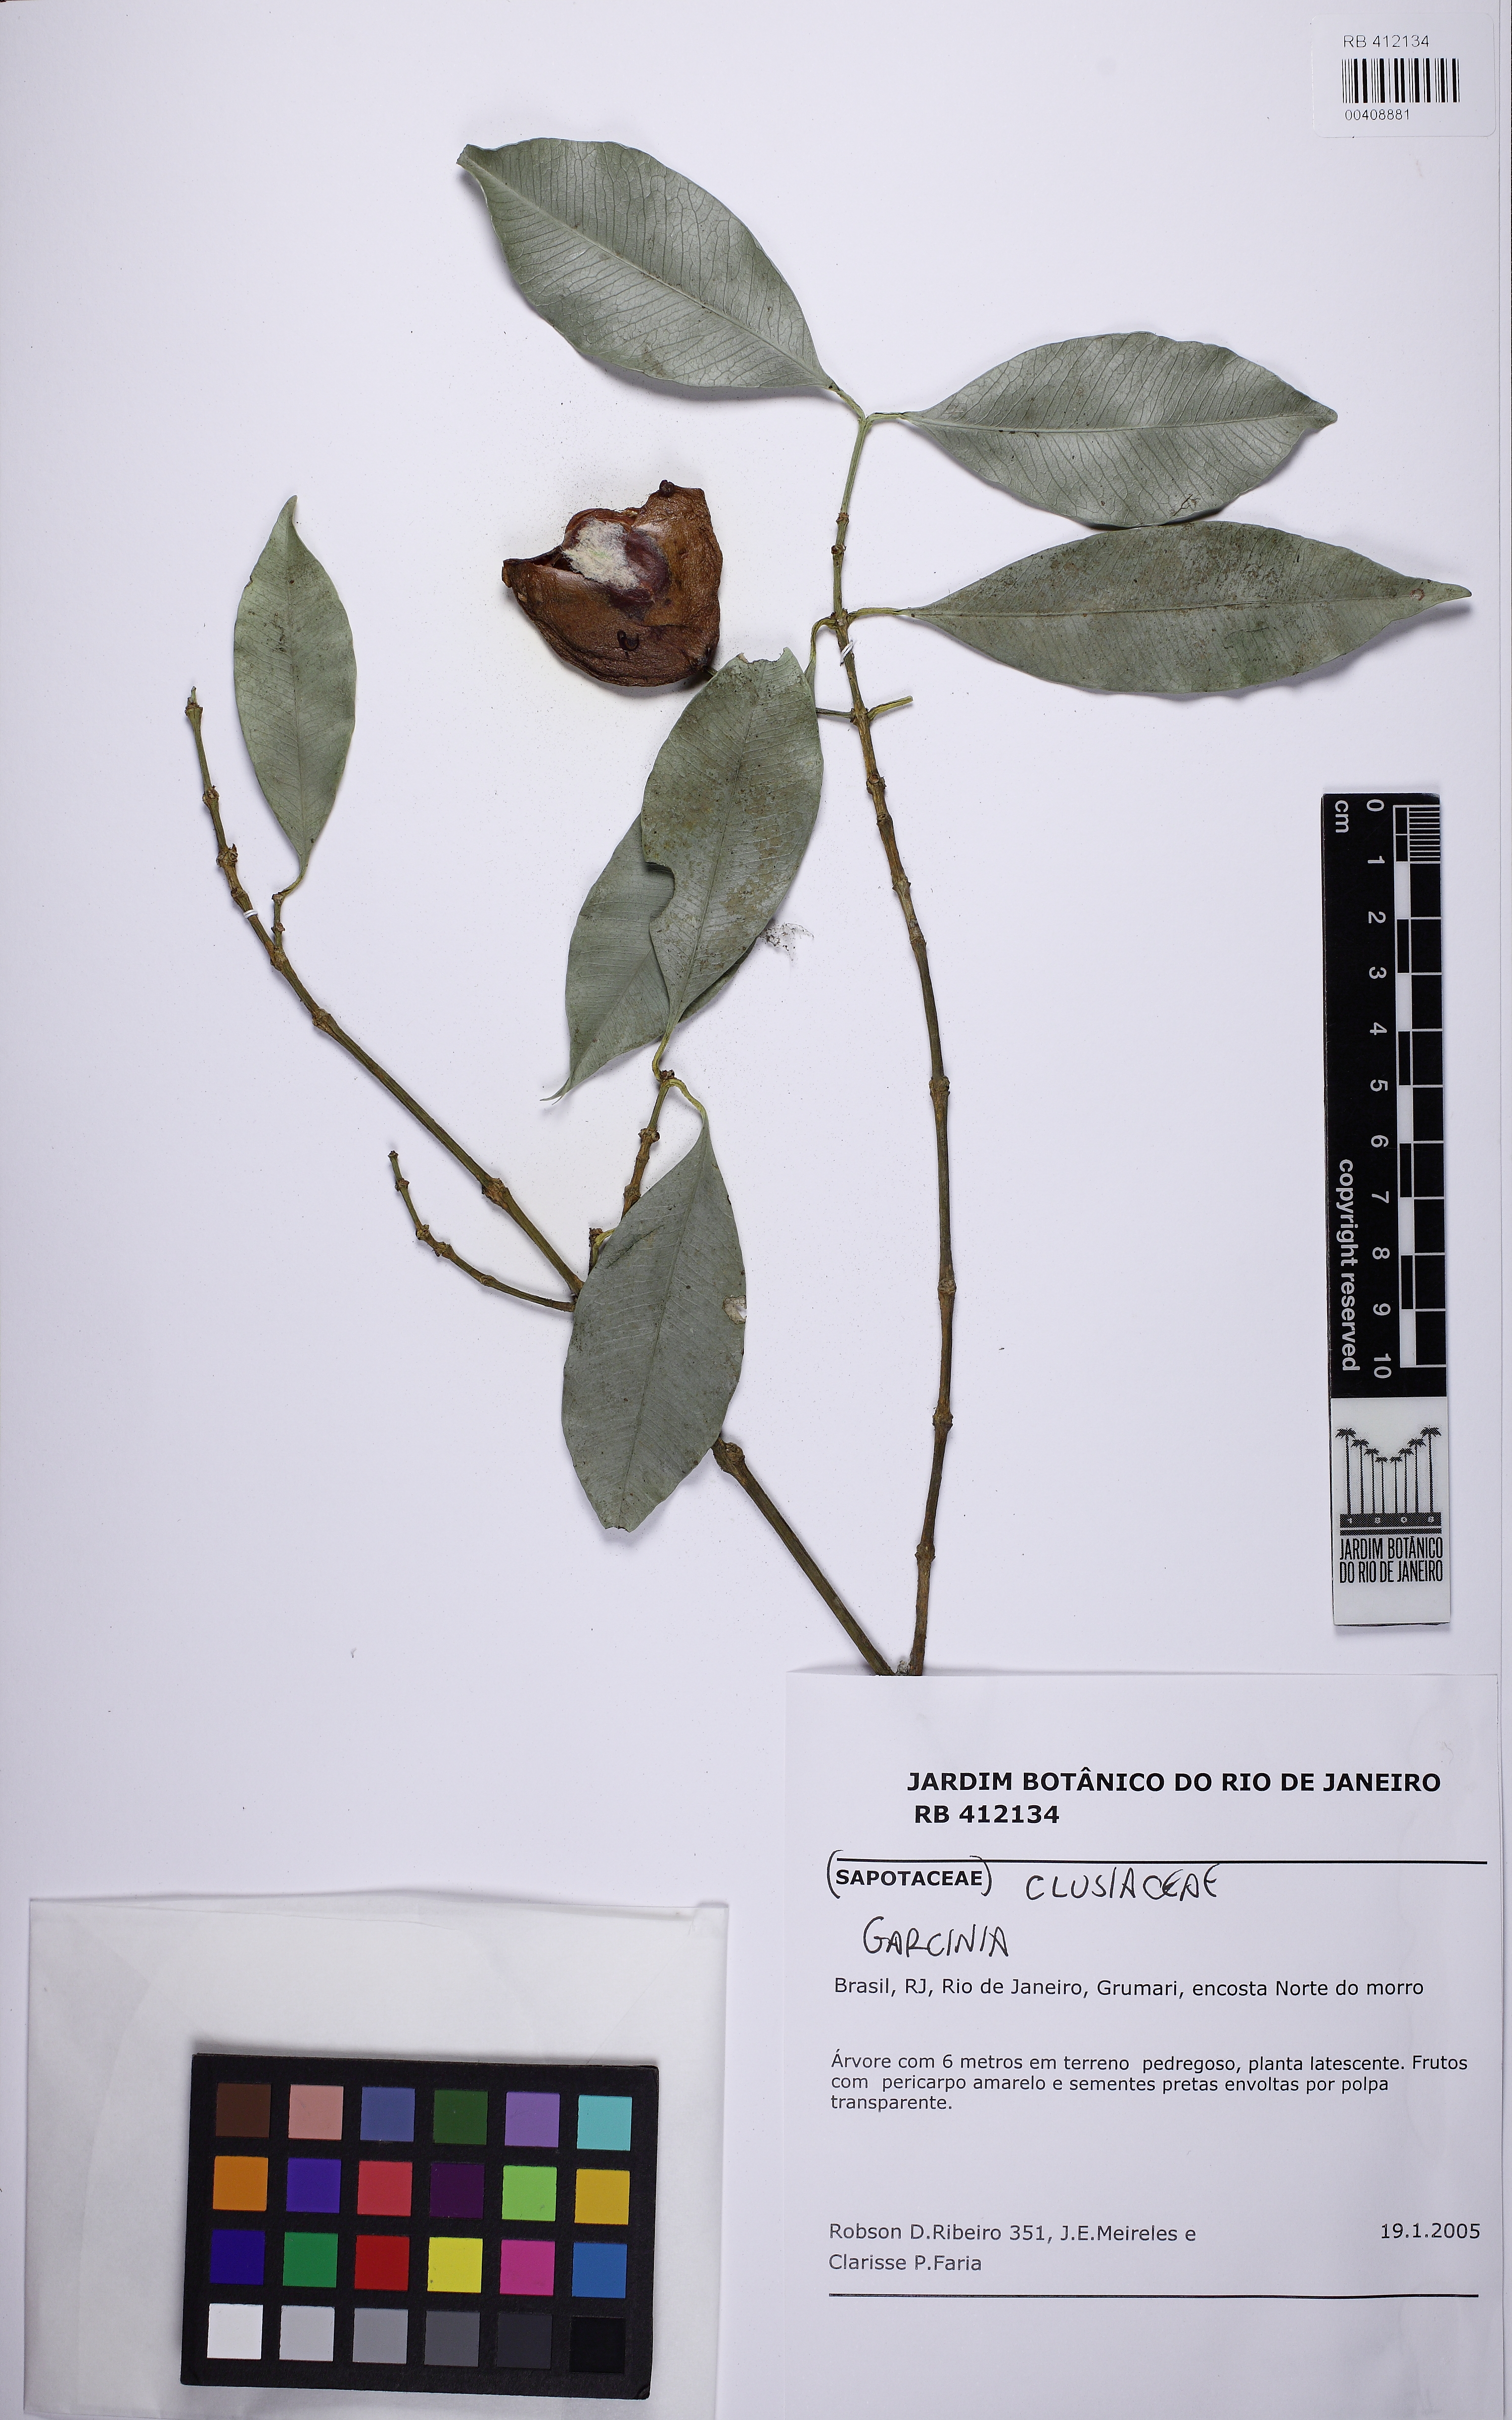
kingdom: Plantae
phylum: Tracheophyta
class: Magnoliopsida
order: Malpighiales
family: Clusiaceae
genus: Garcinia
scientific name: Garcinia gardneriana
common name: Achacha
